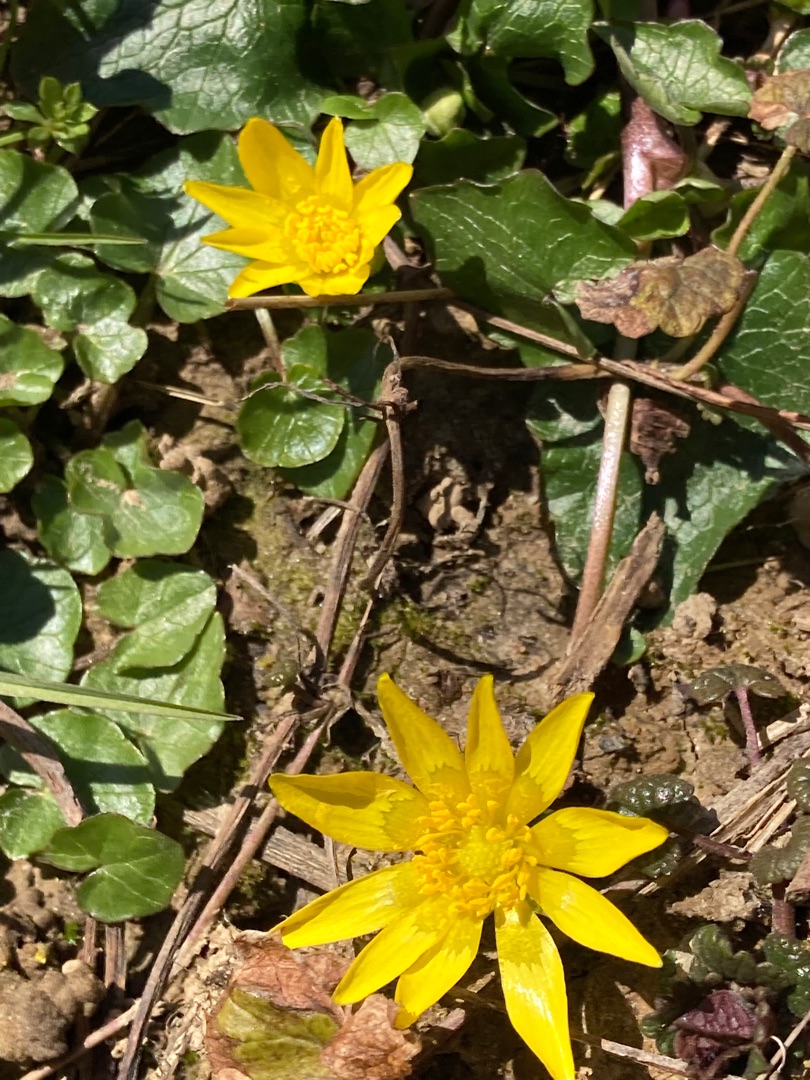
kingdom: Plantae
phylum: Tracheophyta
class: Magnoliopsida
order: Ranunculales
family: Ranunculaceae
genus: Ficaria
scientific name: Ficaria verna
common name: Vorterod
